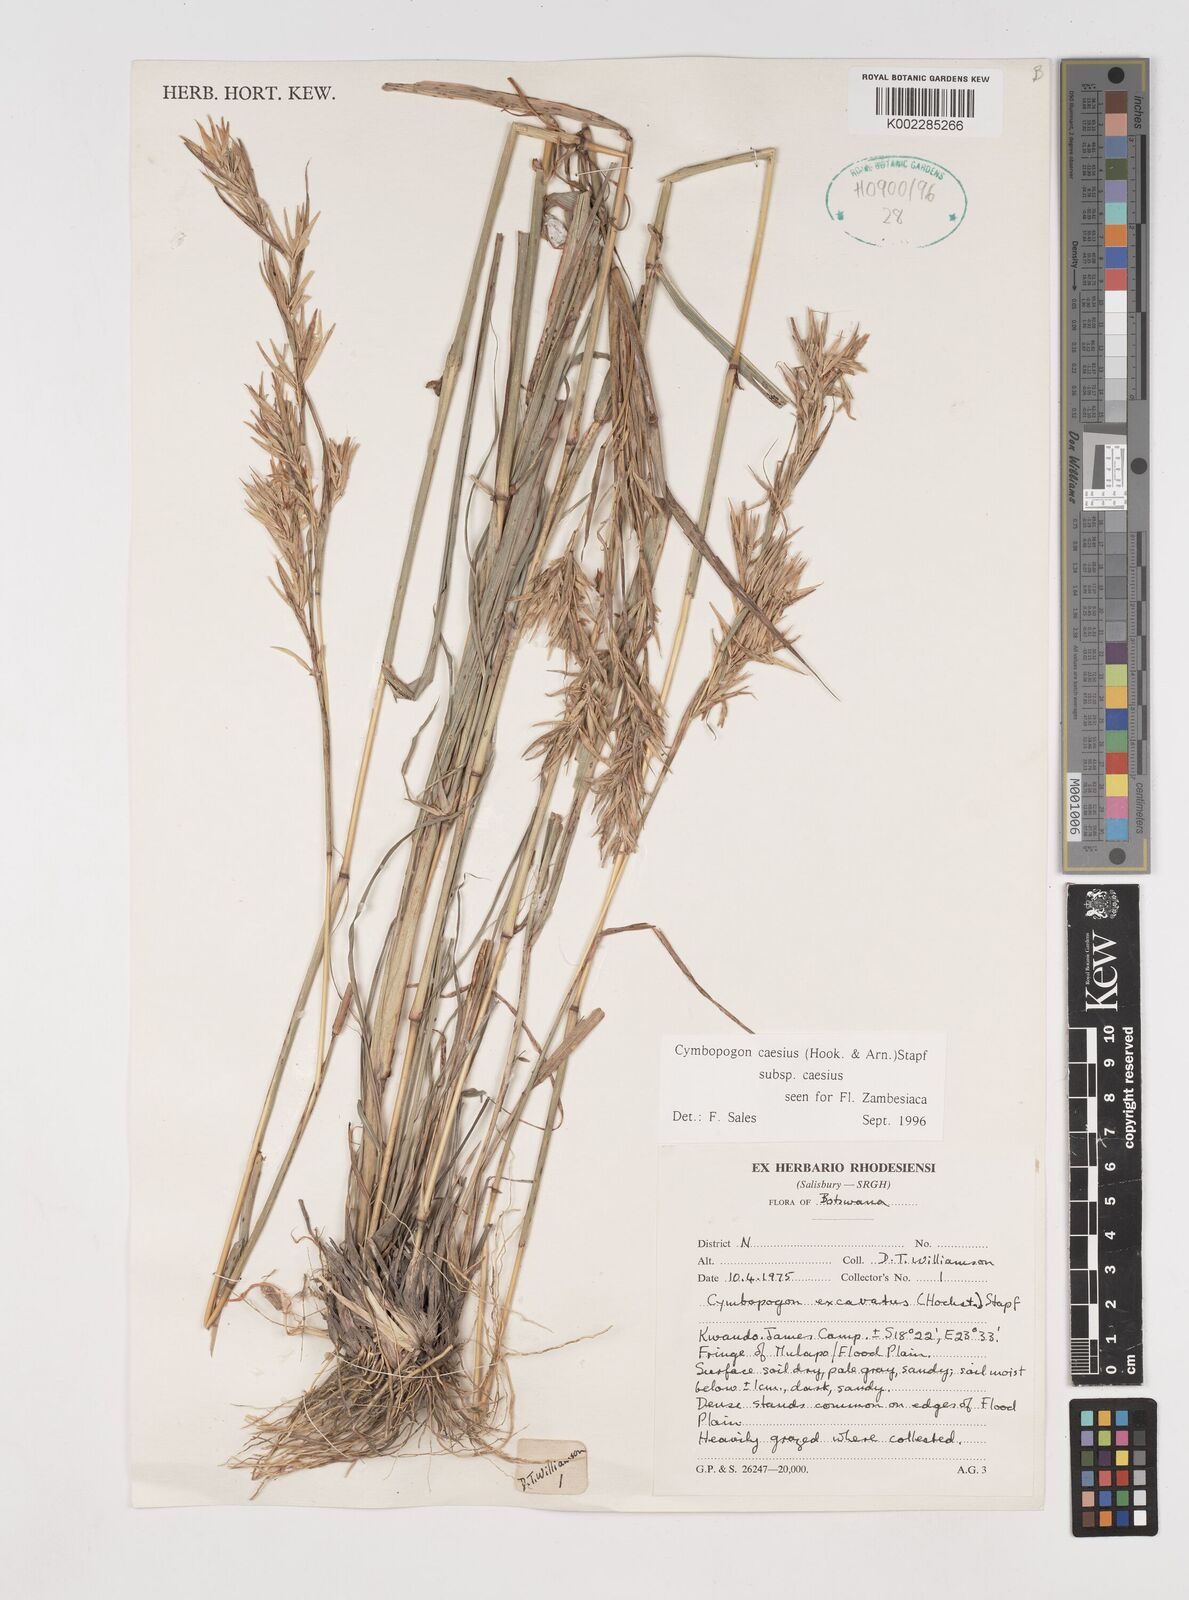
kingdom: Plantae
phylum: Tracheophyta
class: Liliopsida
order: Poales
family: Poaceae
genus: Cymbopogon
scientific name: Cymbopogon caesius
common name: Kachi grass
